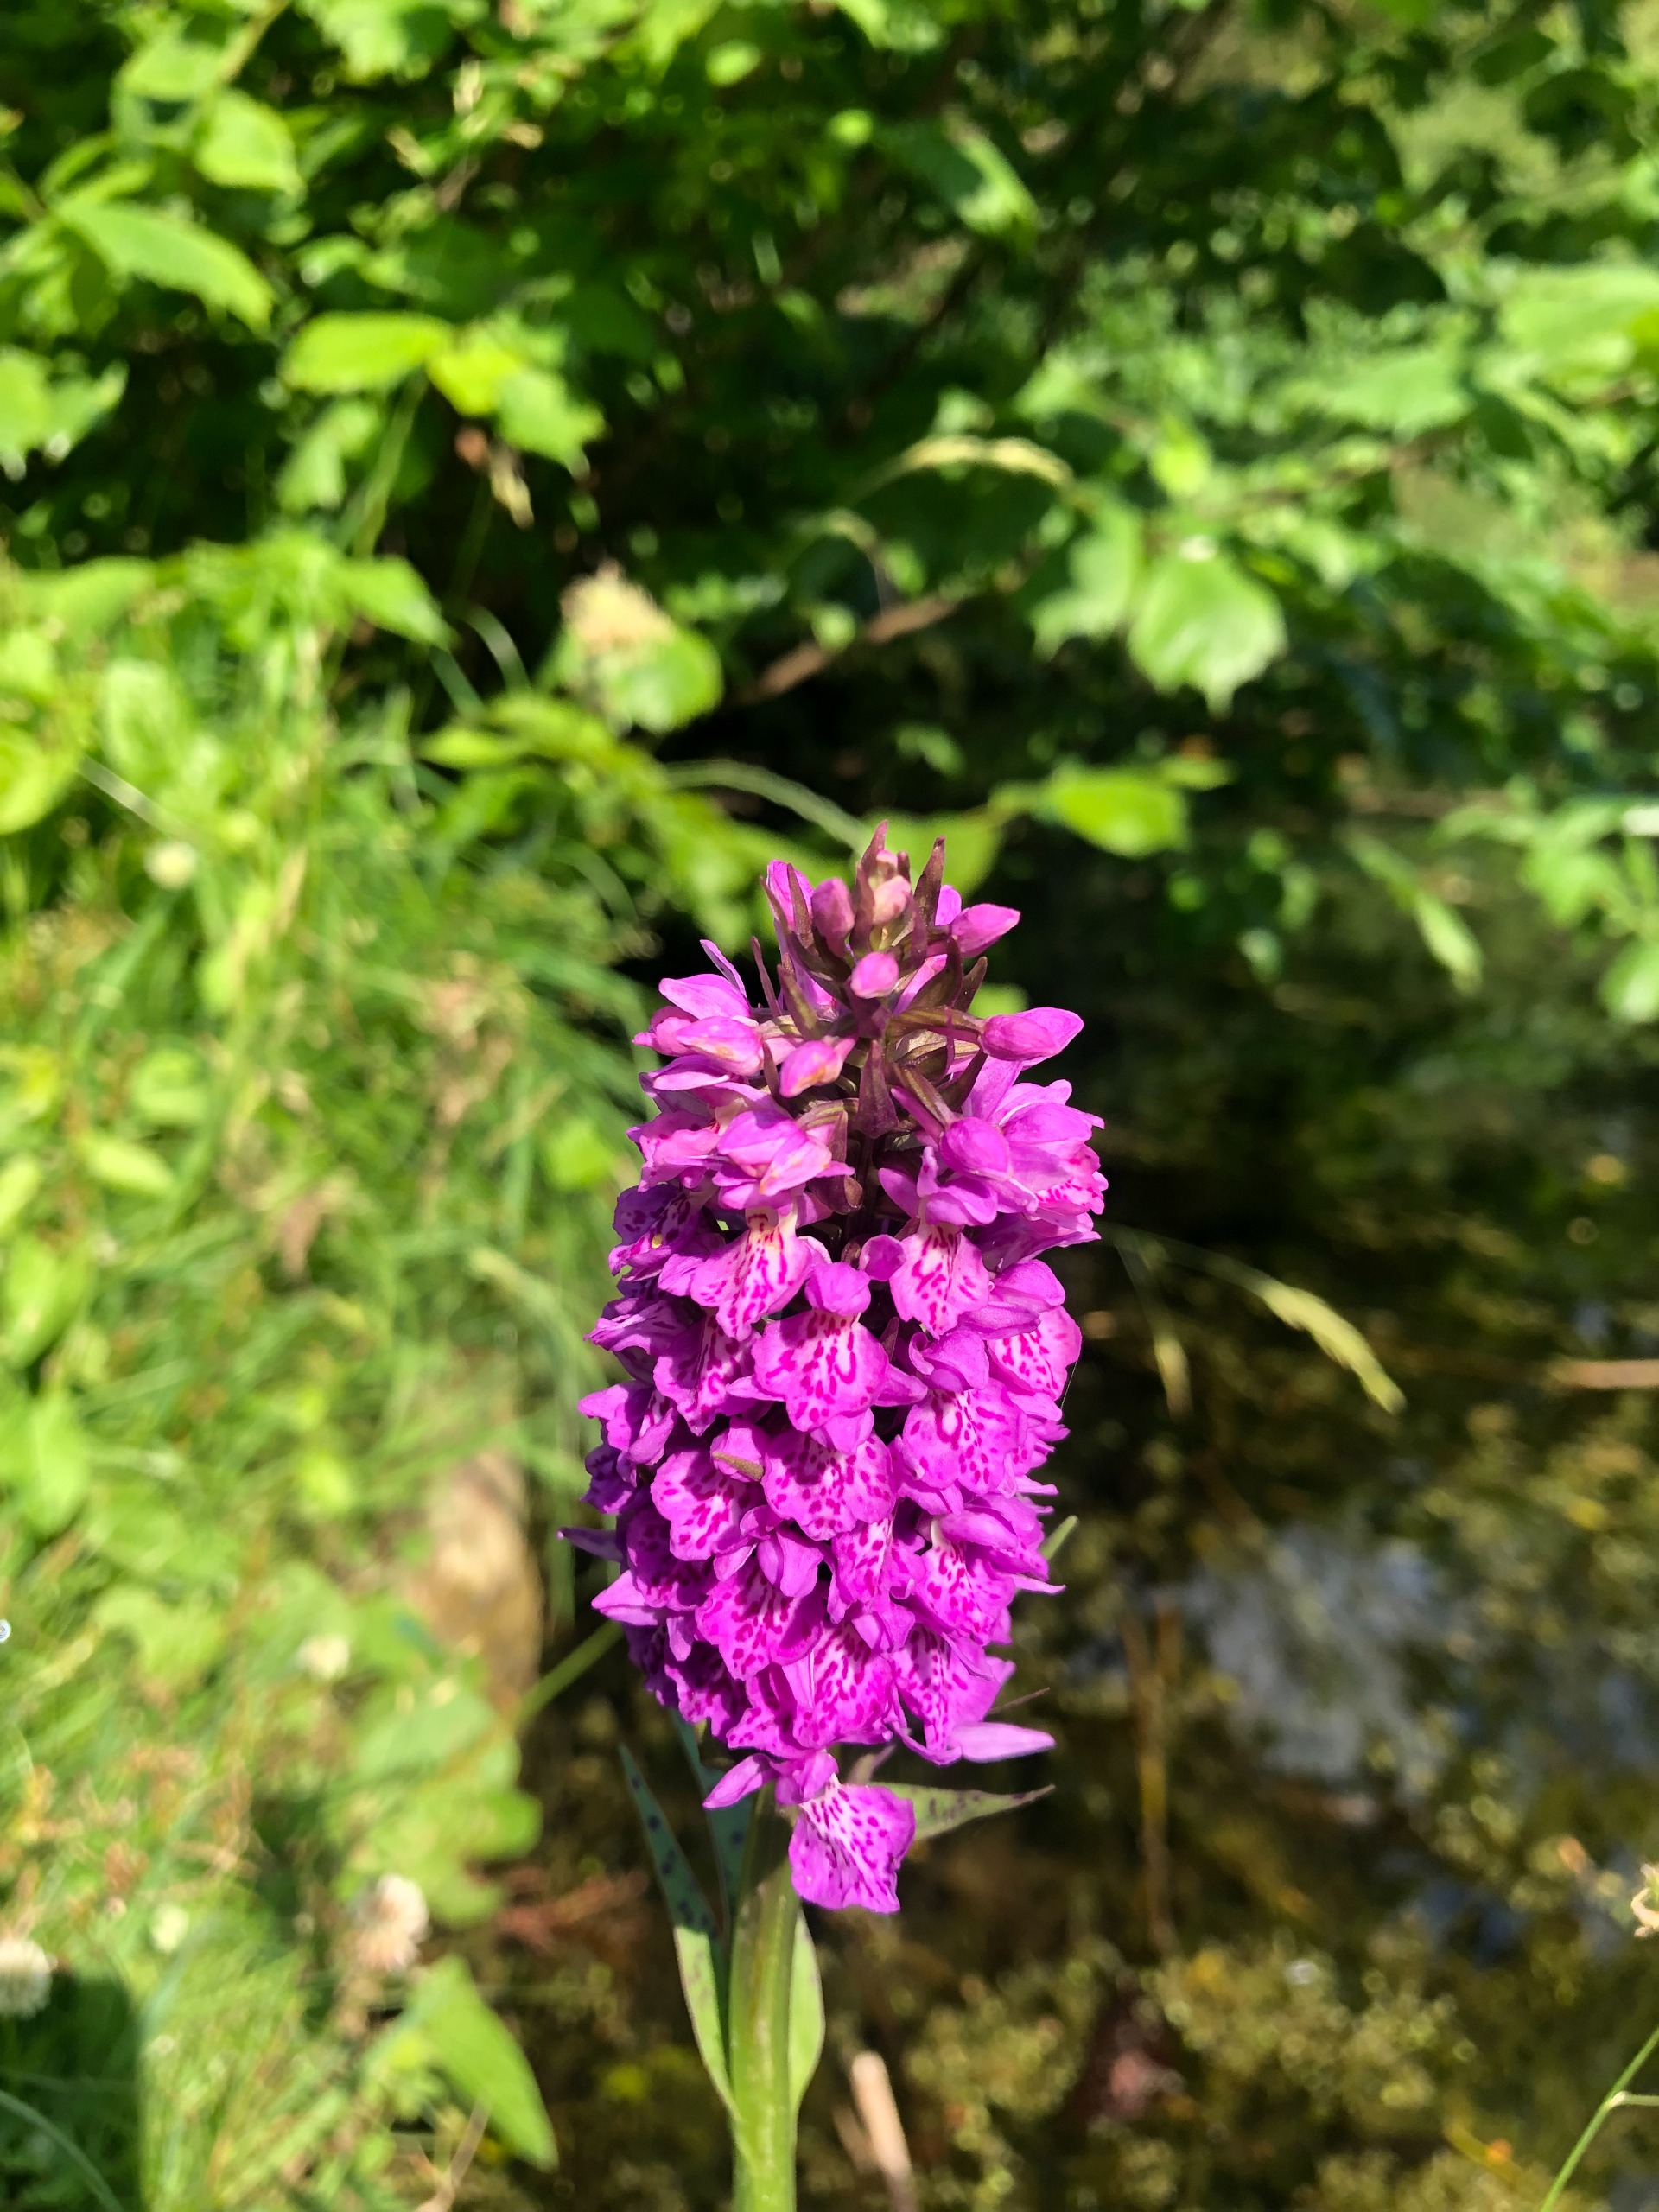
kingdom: Plantae
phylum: Tracheophyta
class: Liliopsida
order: Asparagales
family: Orchidaceae
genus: Dactylorhiza
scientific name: Dactylorhiza majalis
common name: Maj-gøgeurt
